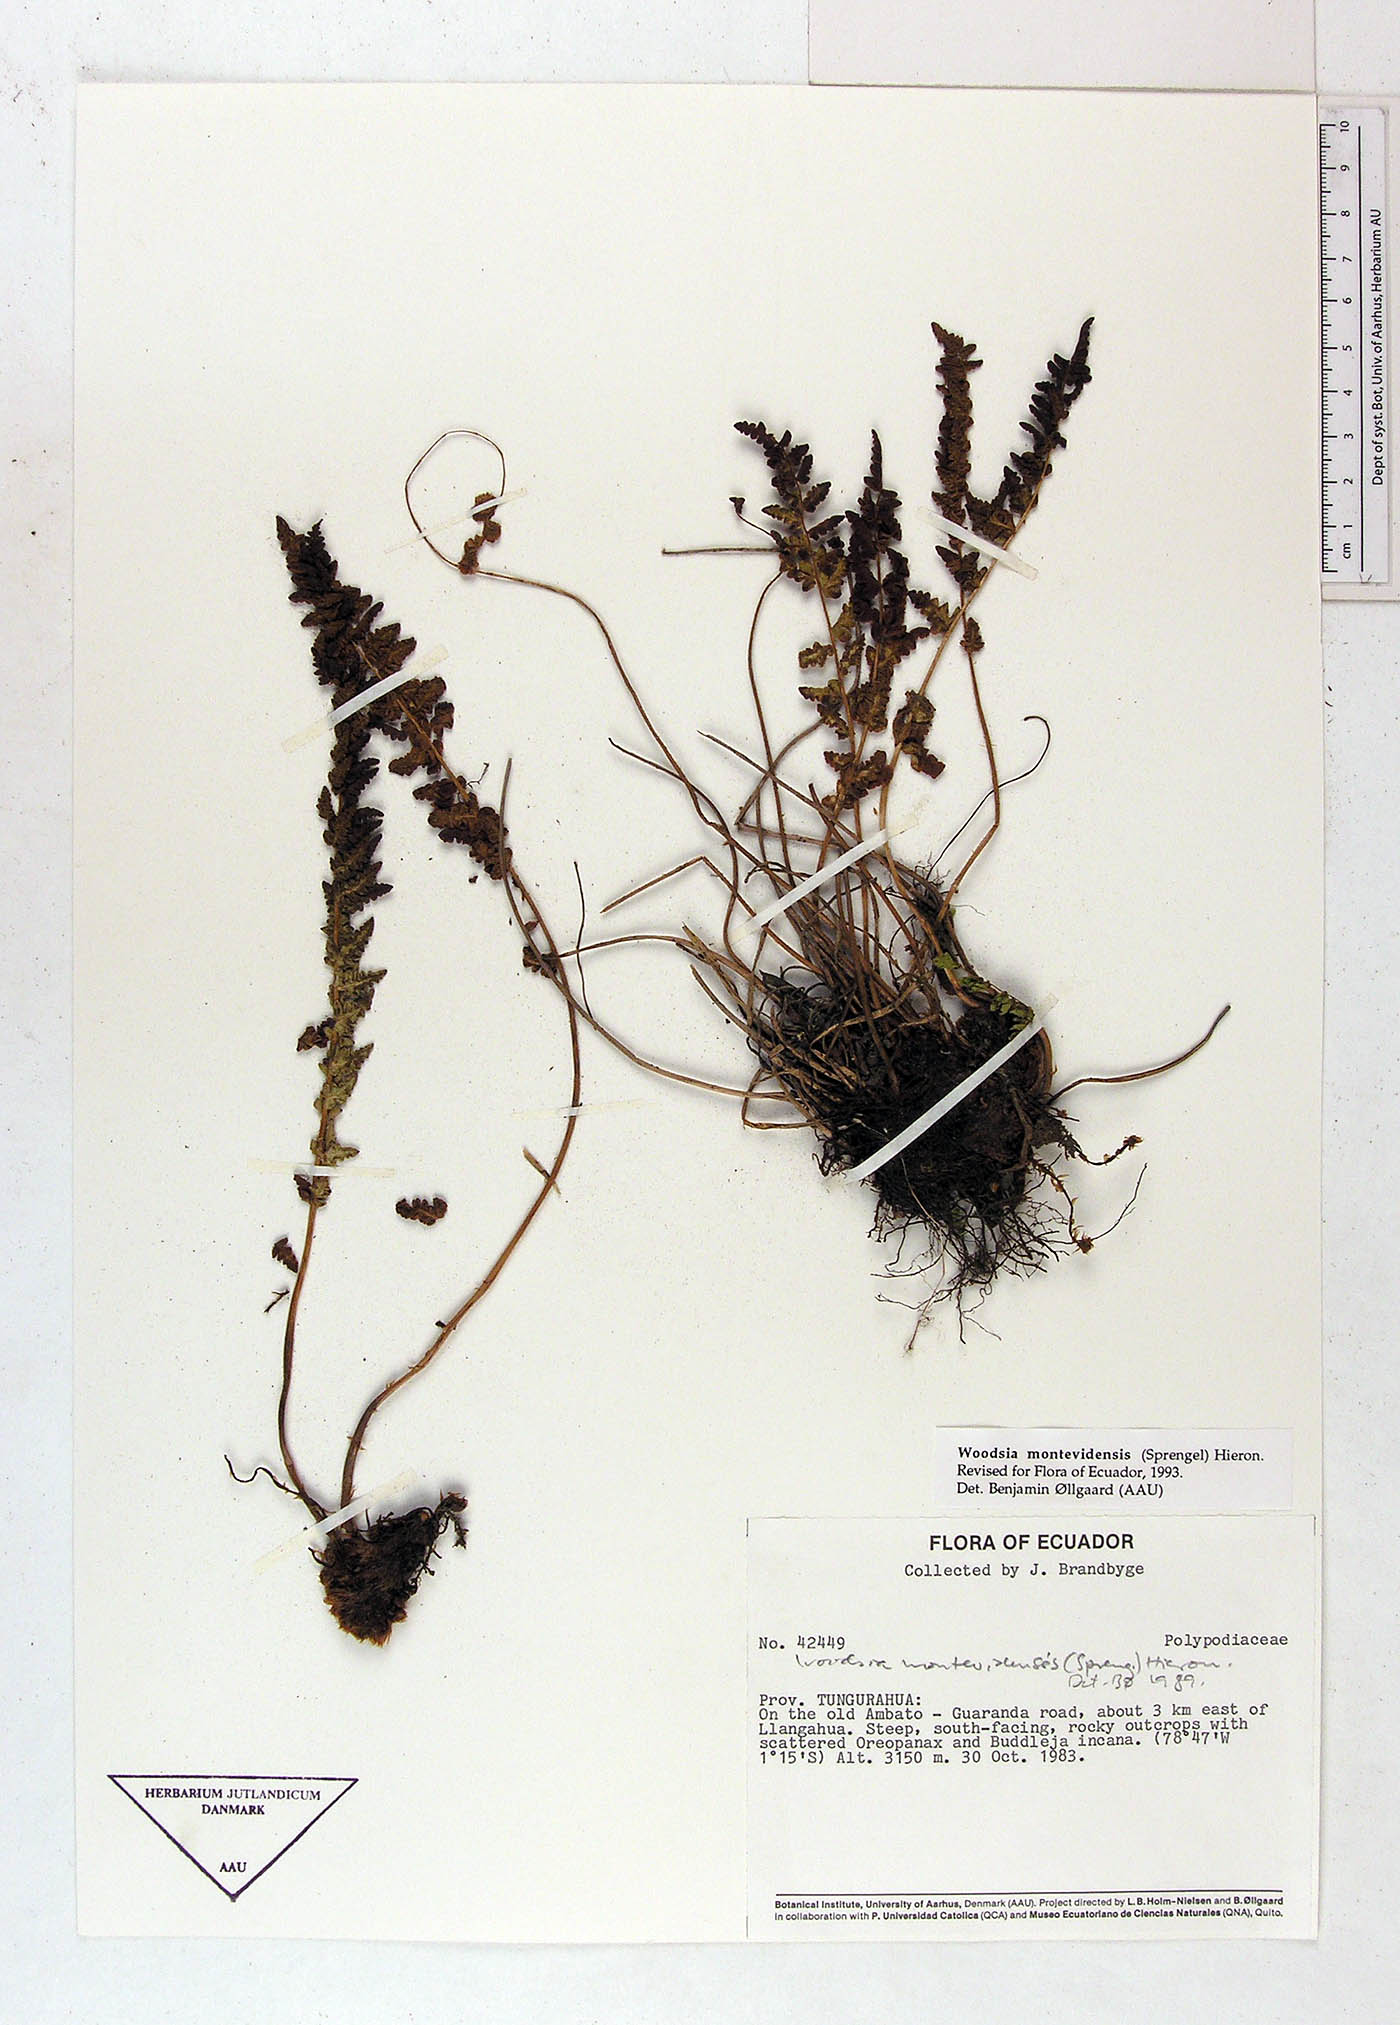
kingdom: Plantae
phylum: Tracheophyta
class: Polypodiopsida
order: Polypodiales
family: Polypodiaceae
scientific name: Polypodiaceae
